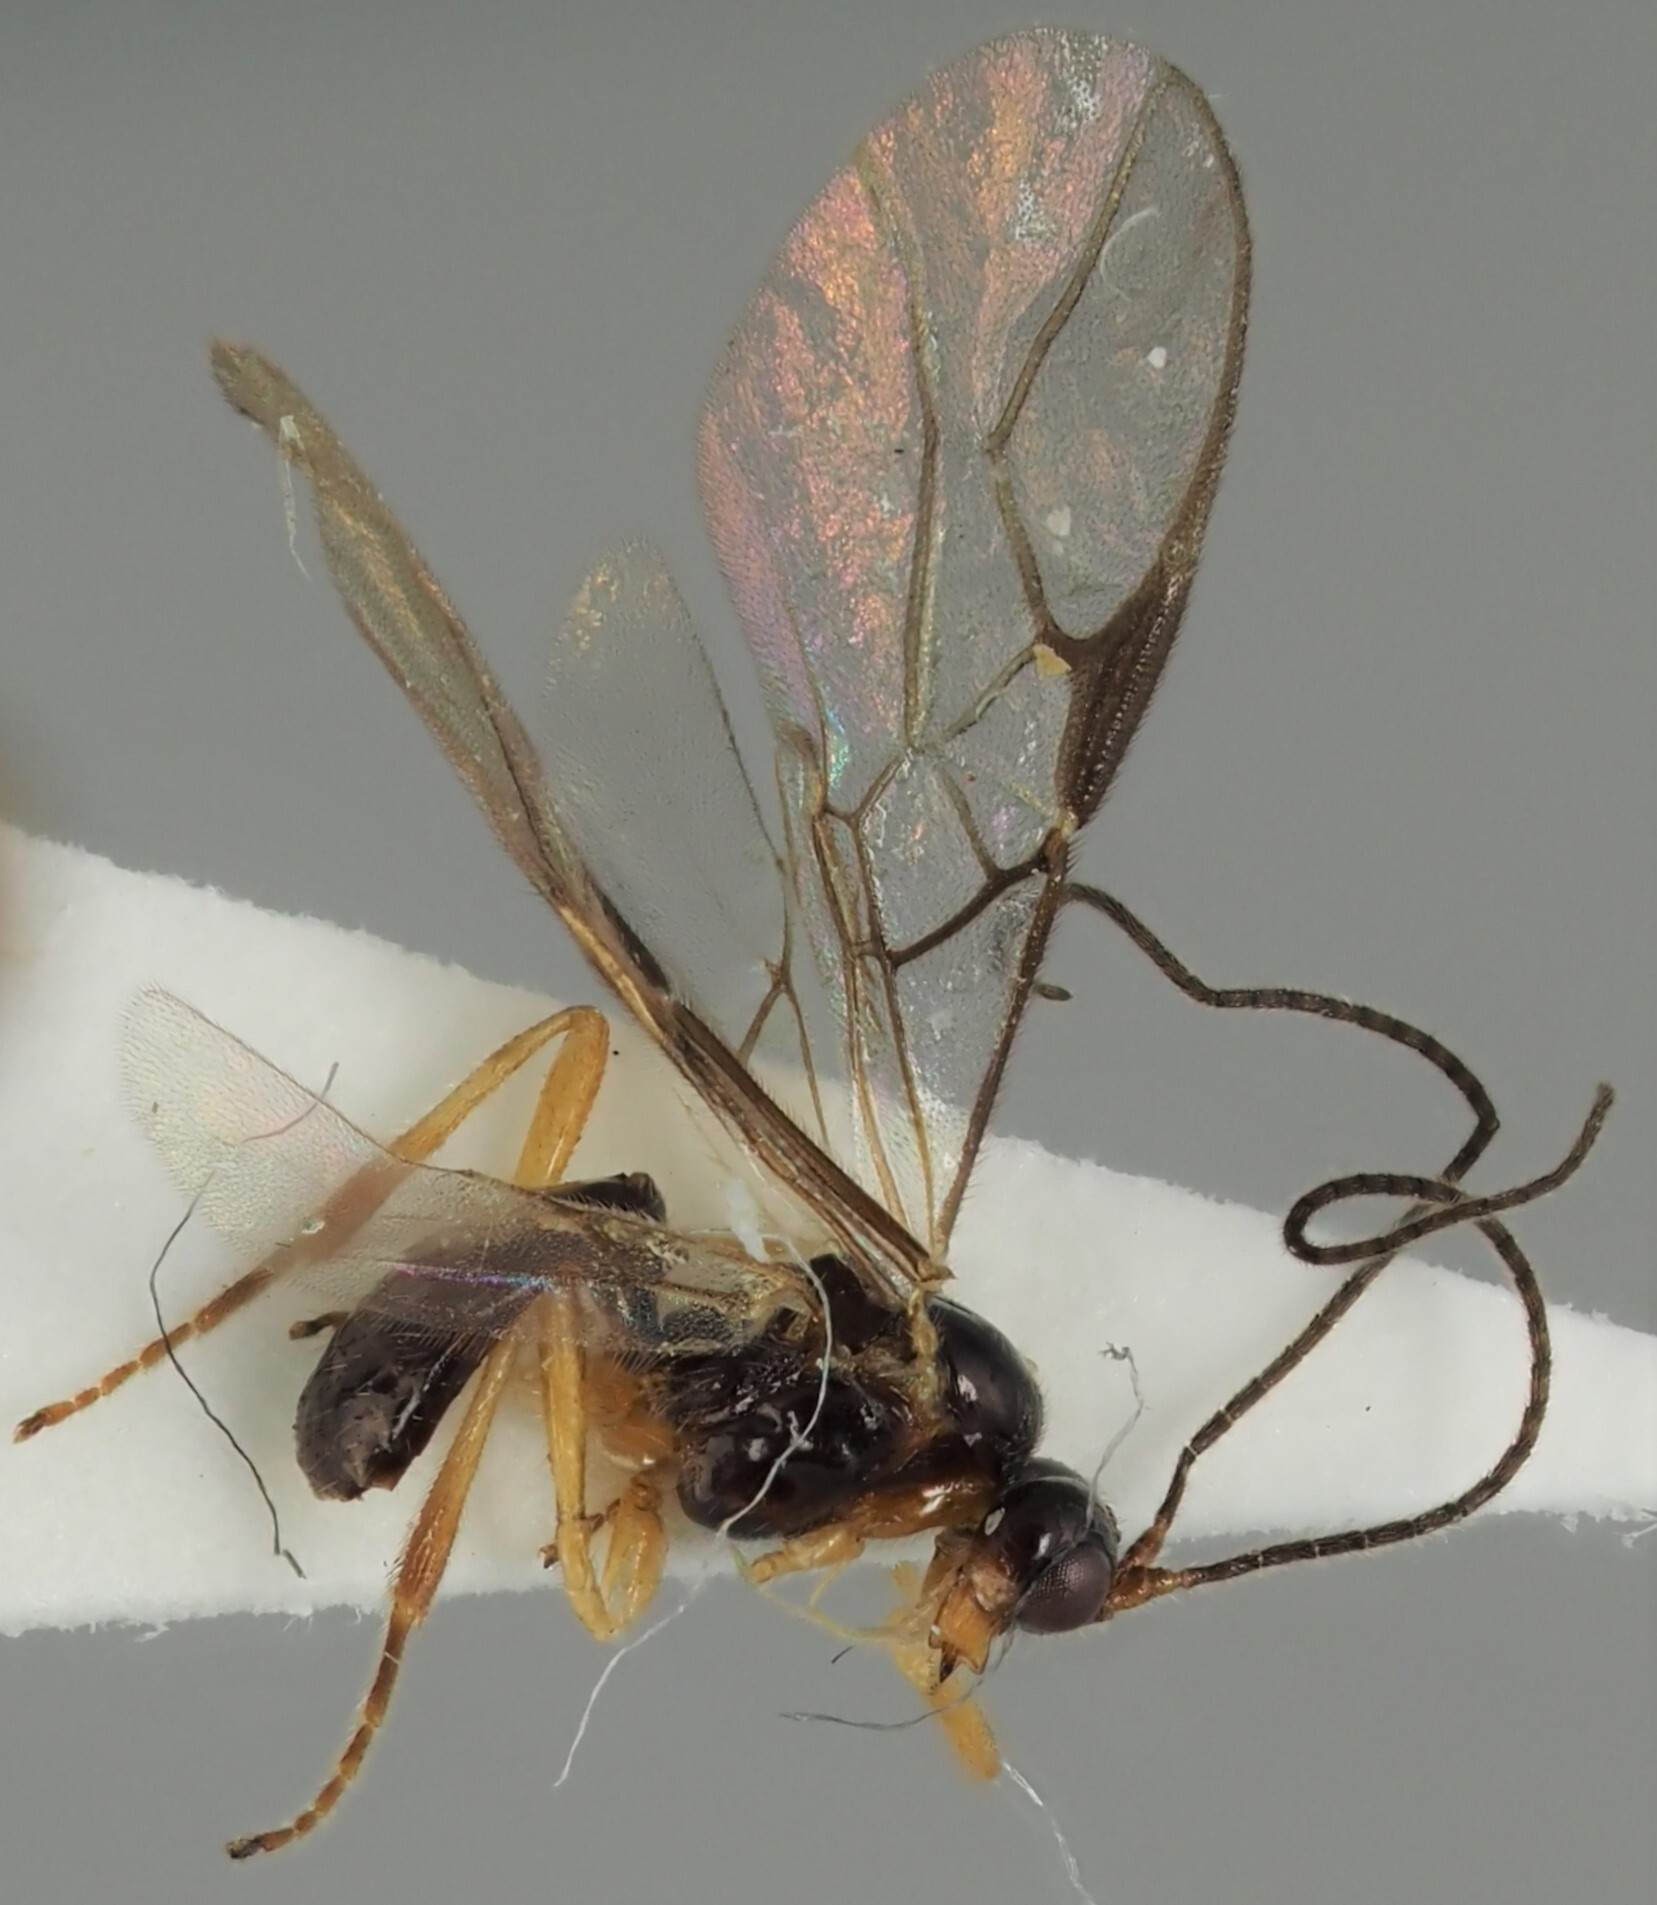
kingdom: Animalia
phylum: Arthropoda
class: Insecta
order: Hymenoptera
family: Braconidae
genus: Dapsilarthra
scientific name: Dapsilarthra dictynna
